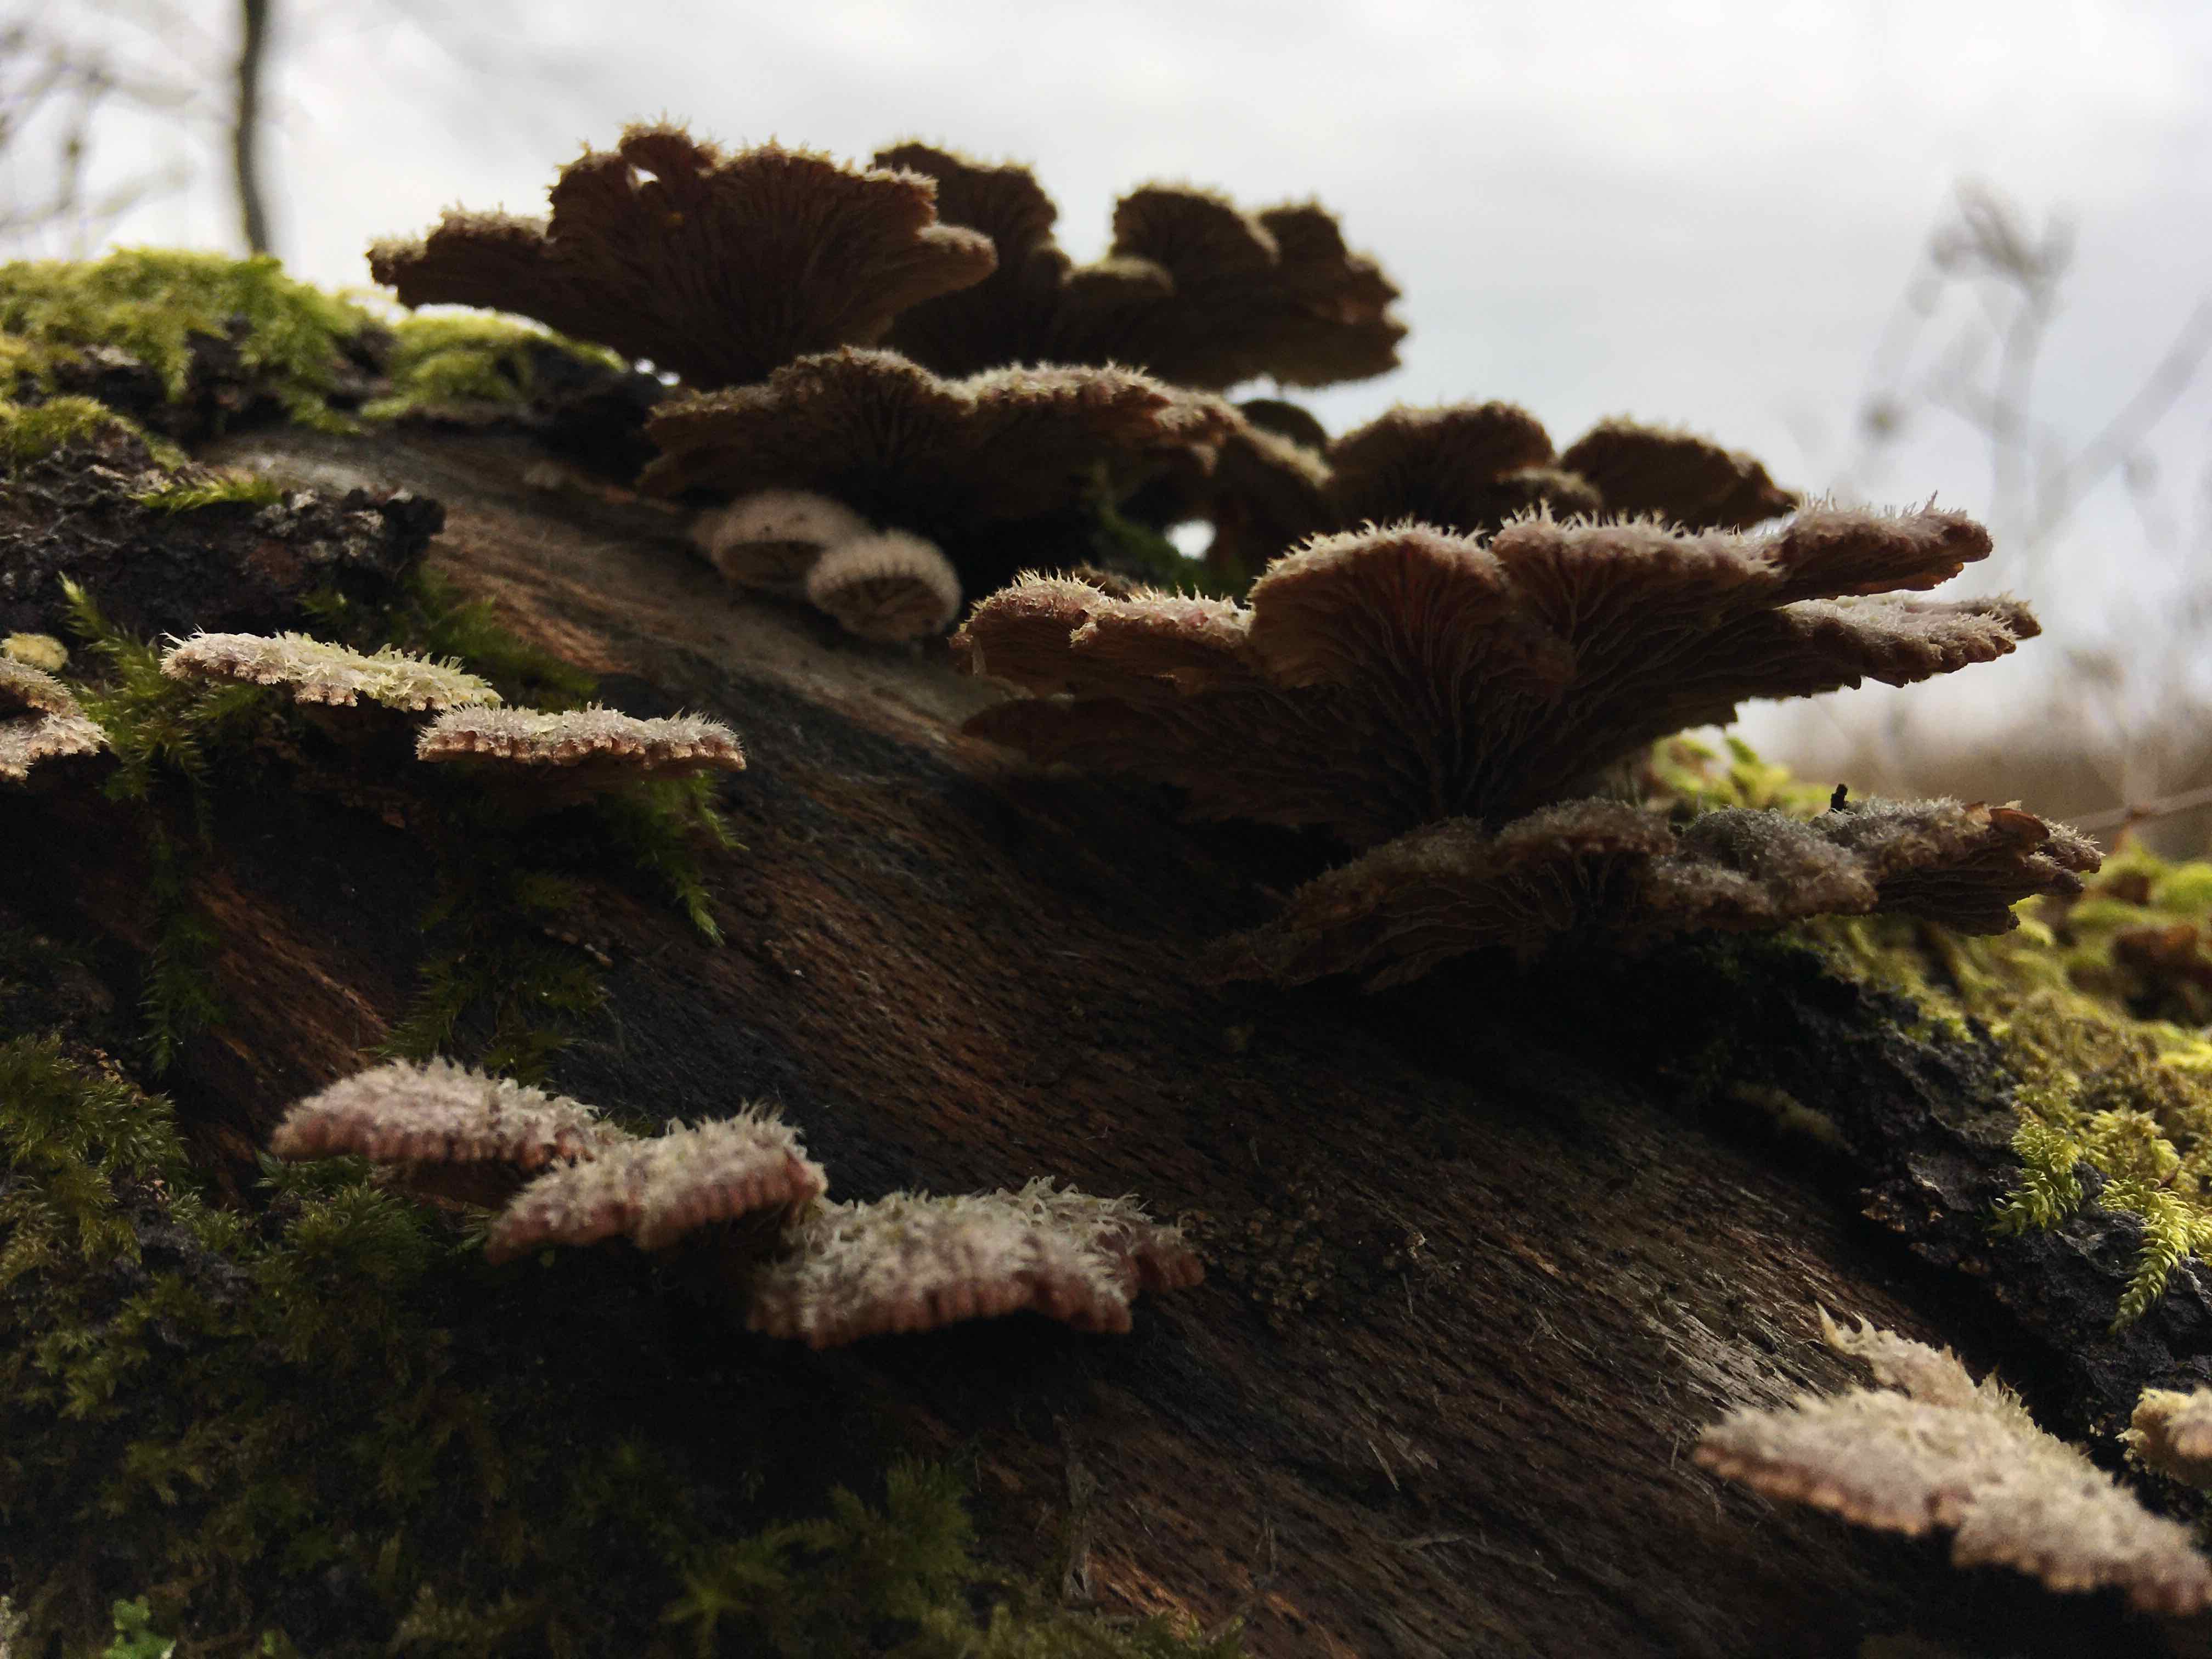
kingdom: Fungi
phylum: Basidiomycota
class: Agaricomycetes
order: Agaricales
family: Schizophyllaceae
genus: Schizophyllum
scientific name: Schizophyllum commune
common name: kløvblad
